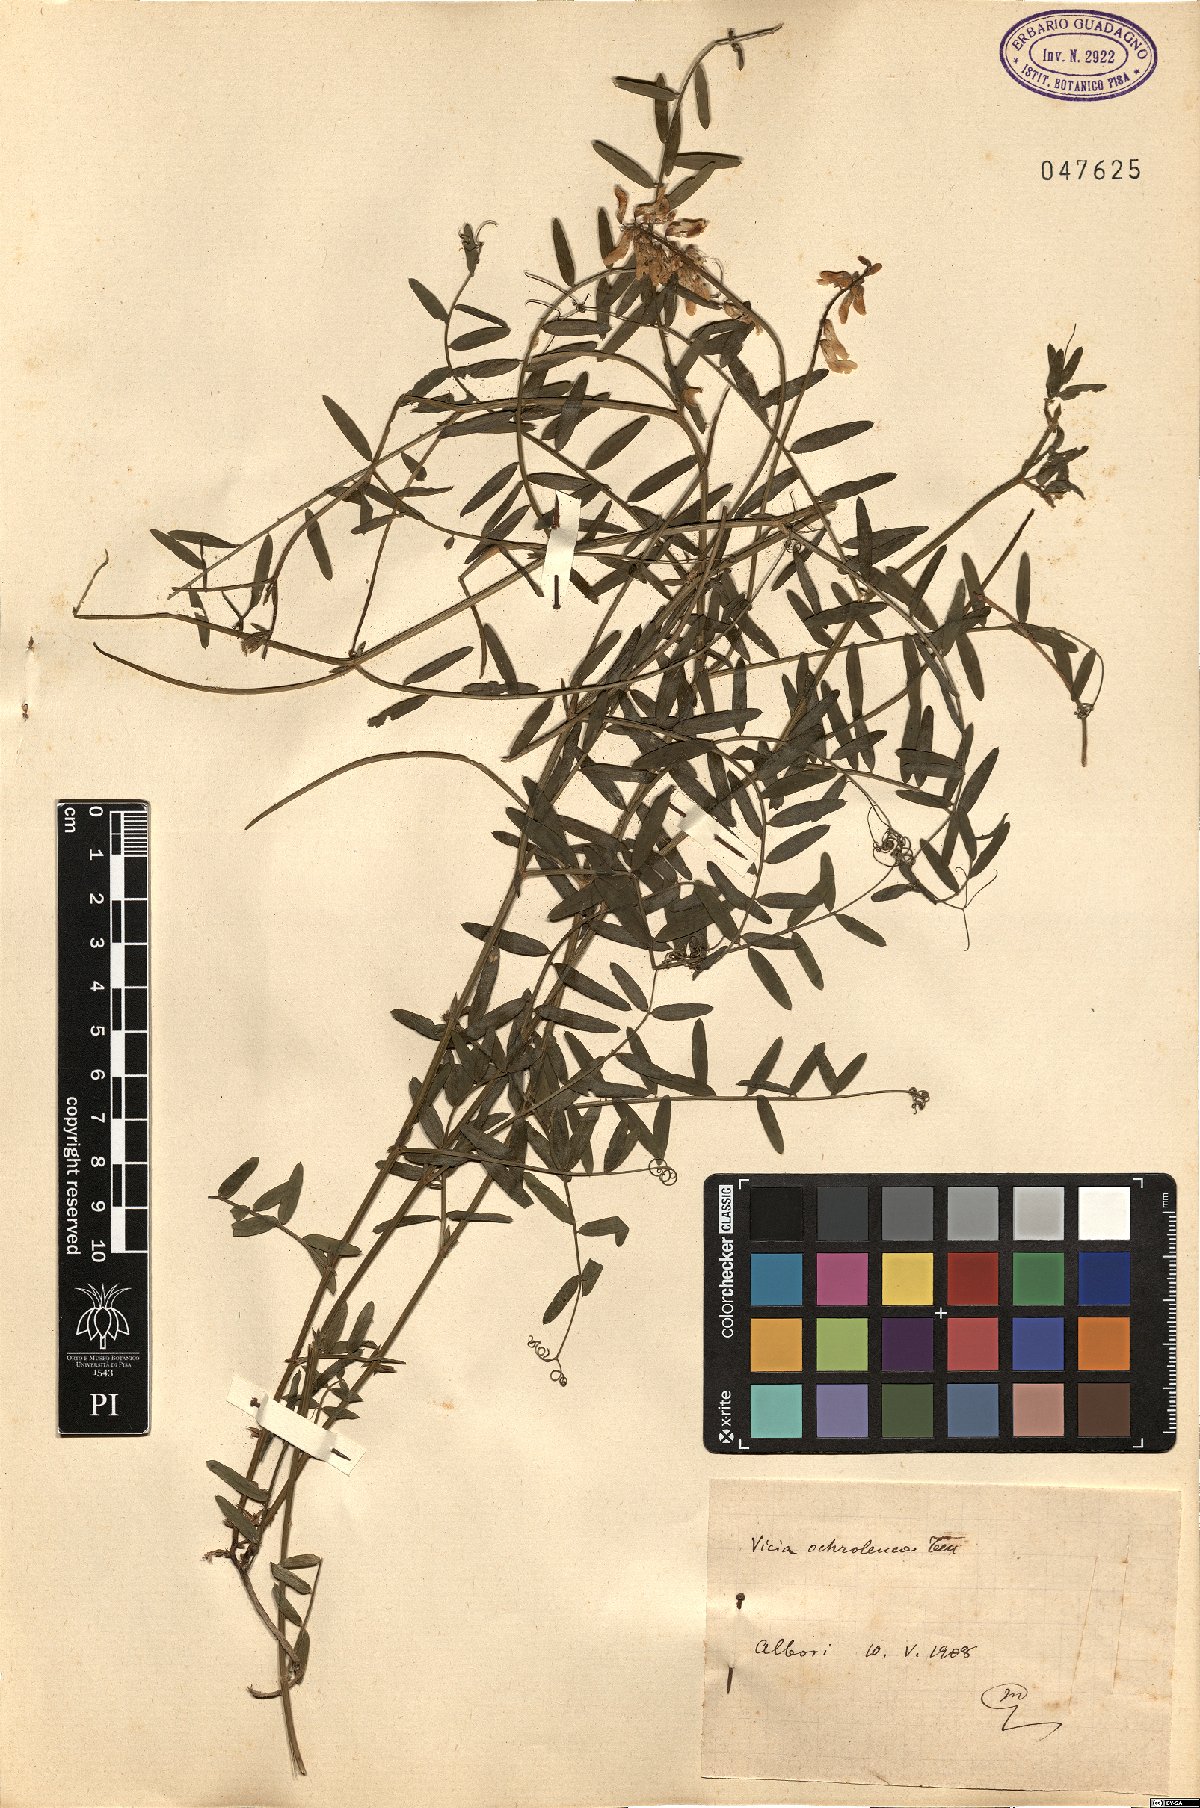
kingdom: Plantae
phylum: Tracheophyta
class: Magnoliopsida
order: Fabales
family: Fabaceae
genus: Vicia
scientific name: Vicia ochroleuca
